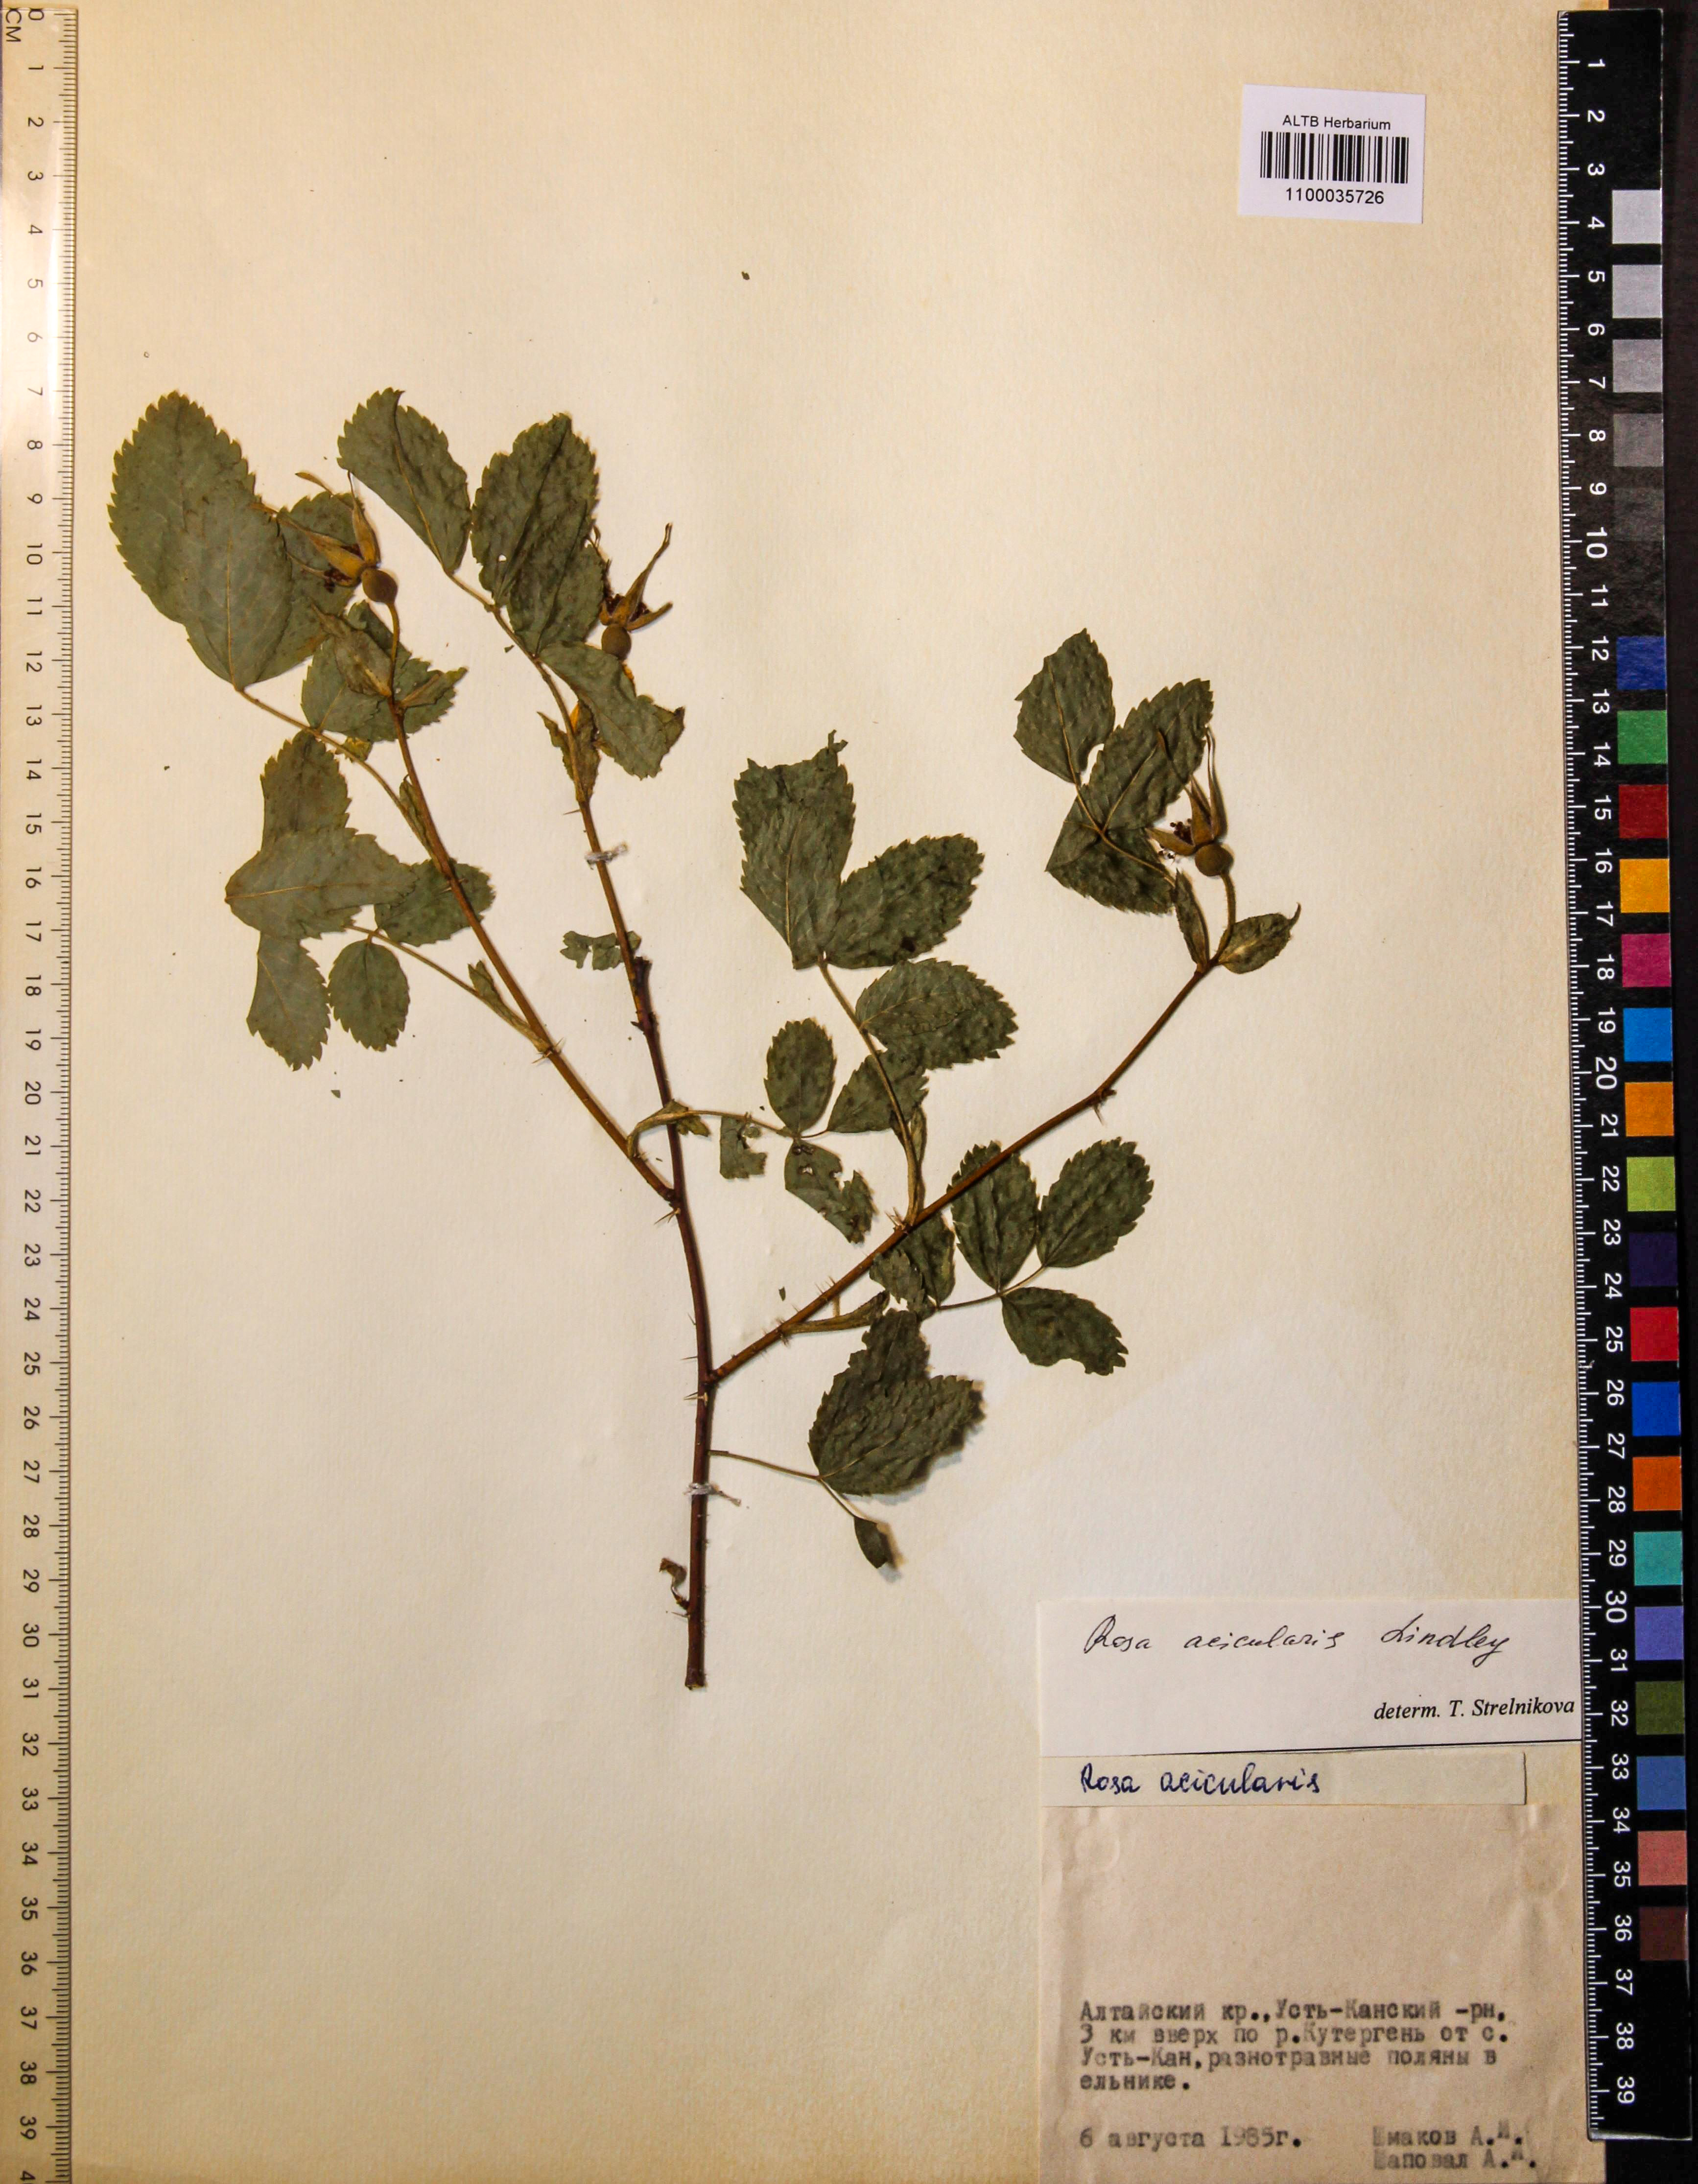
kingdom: Plantae
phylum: Tracheophyta
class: Magnoliopsida
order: Rosales
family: Rosaceae
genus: Rosa
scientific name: Rosa acicularis
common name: Prickly rose
